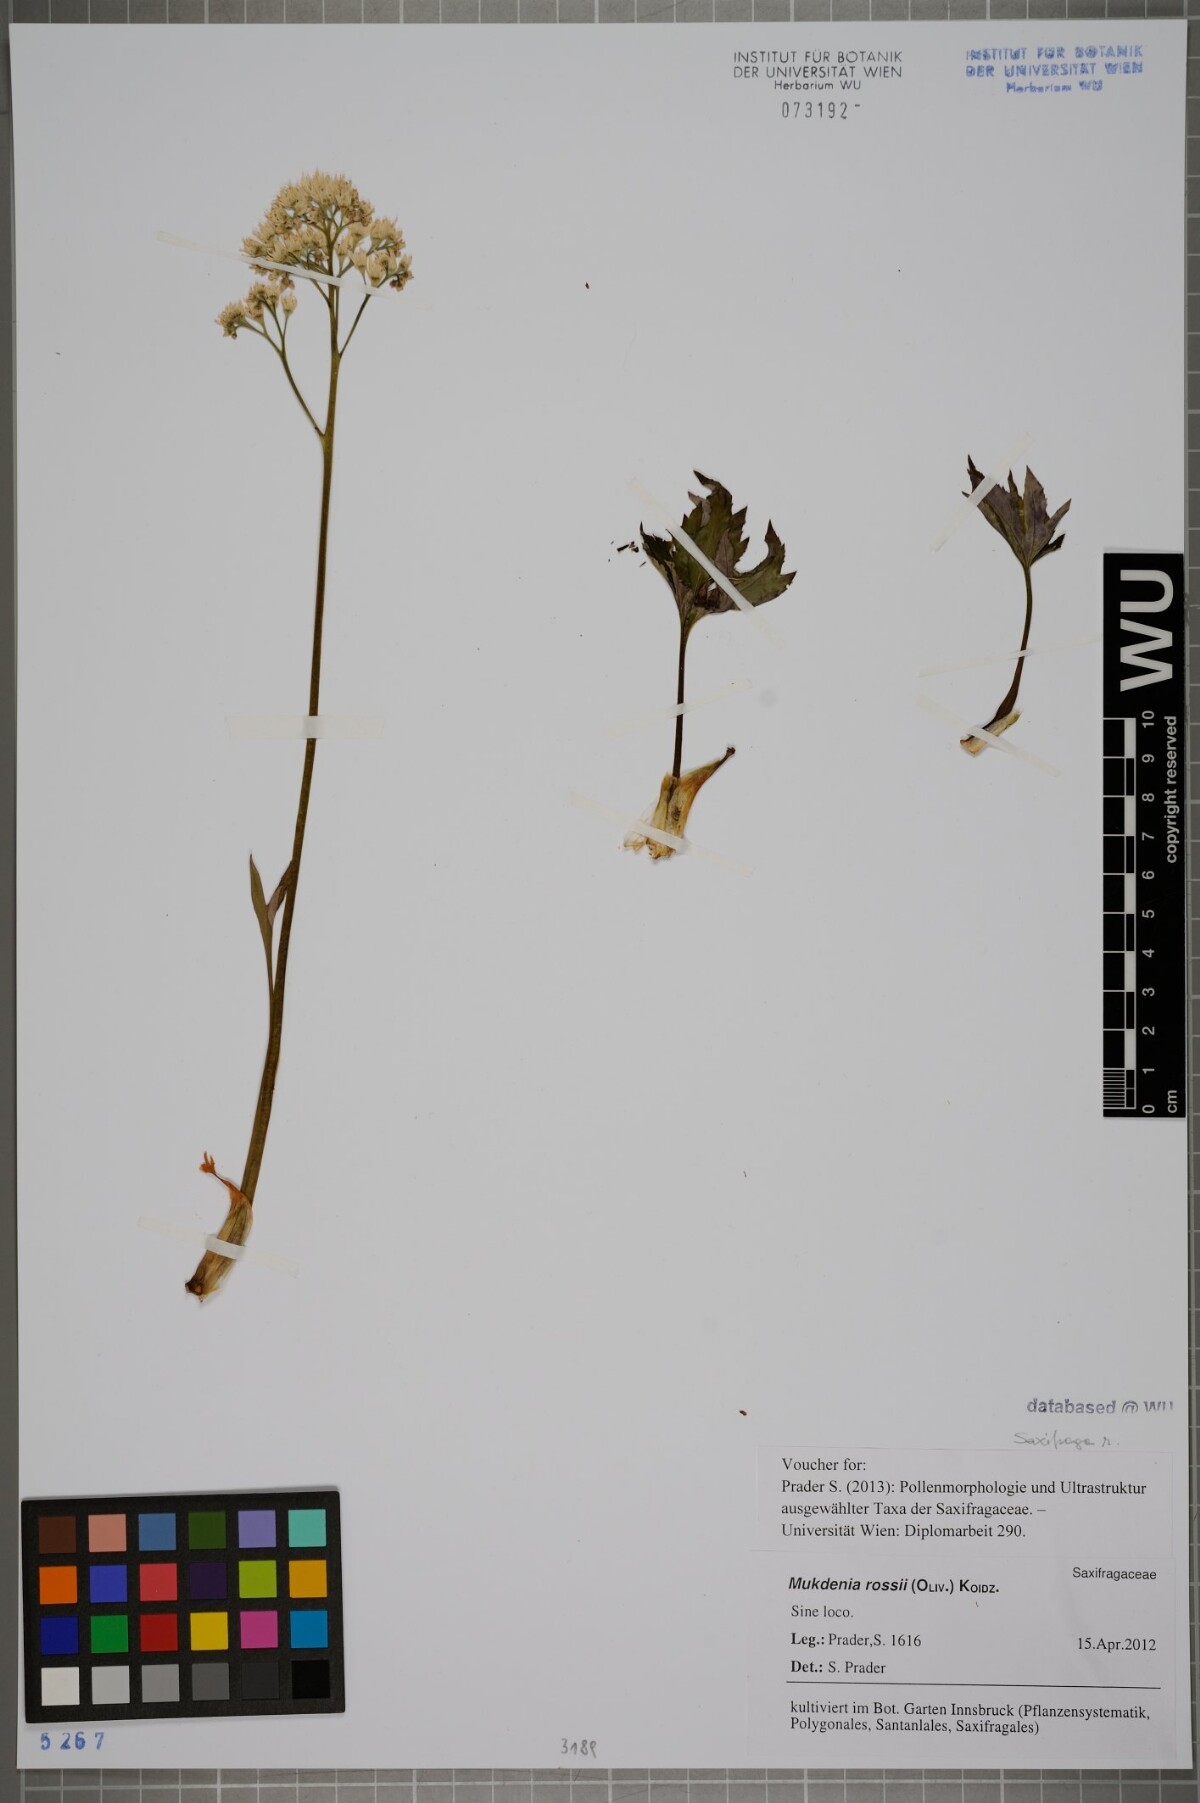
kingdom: Plantae
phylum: Tracheophyta
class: Magnoliopsida
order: Saxifragales
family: Saxifragaceae
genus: Mukdenia
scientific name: Mukdenia rossii
